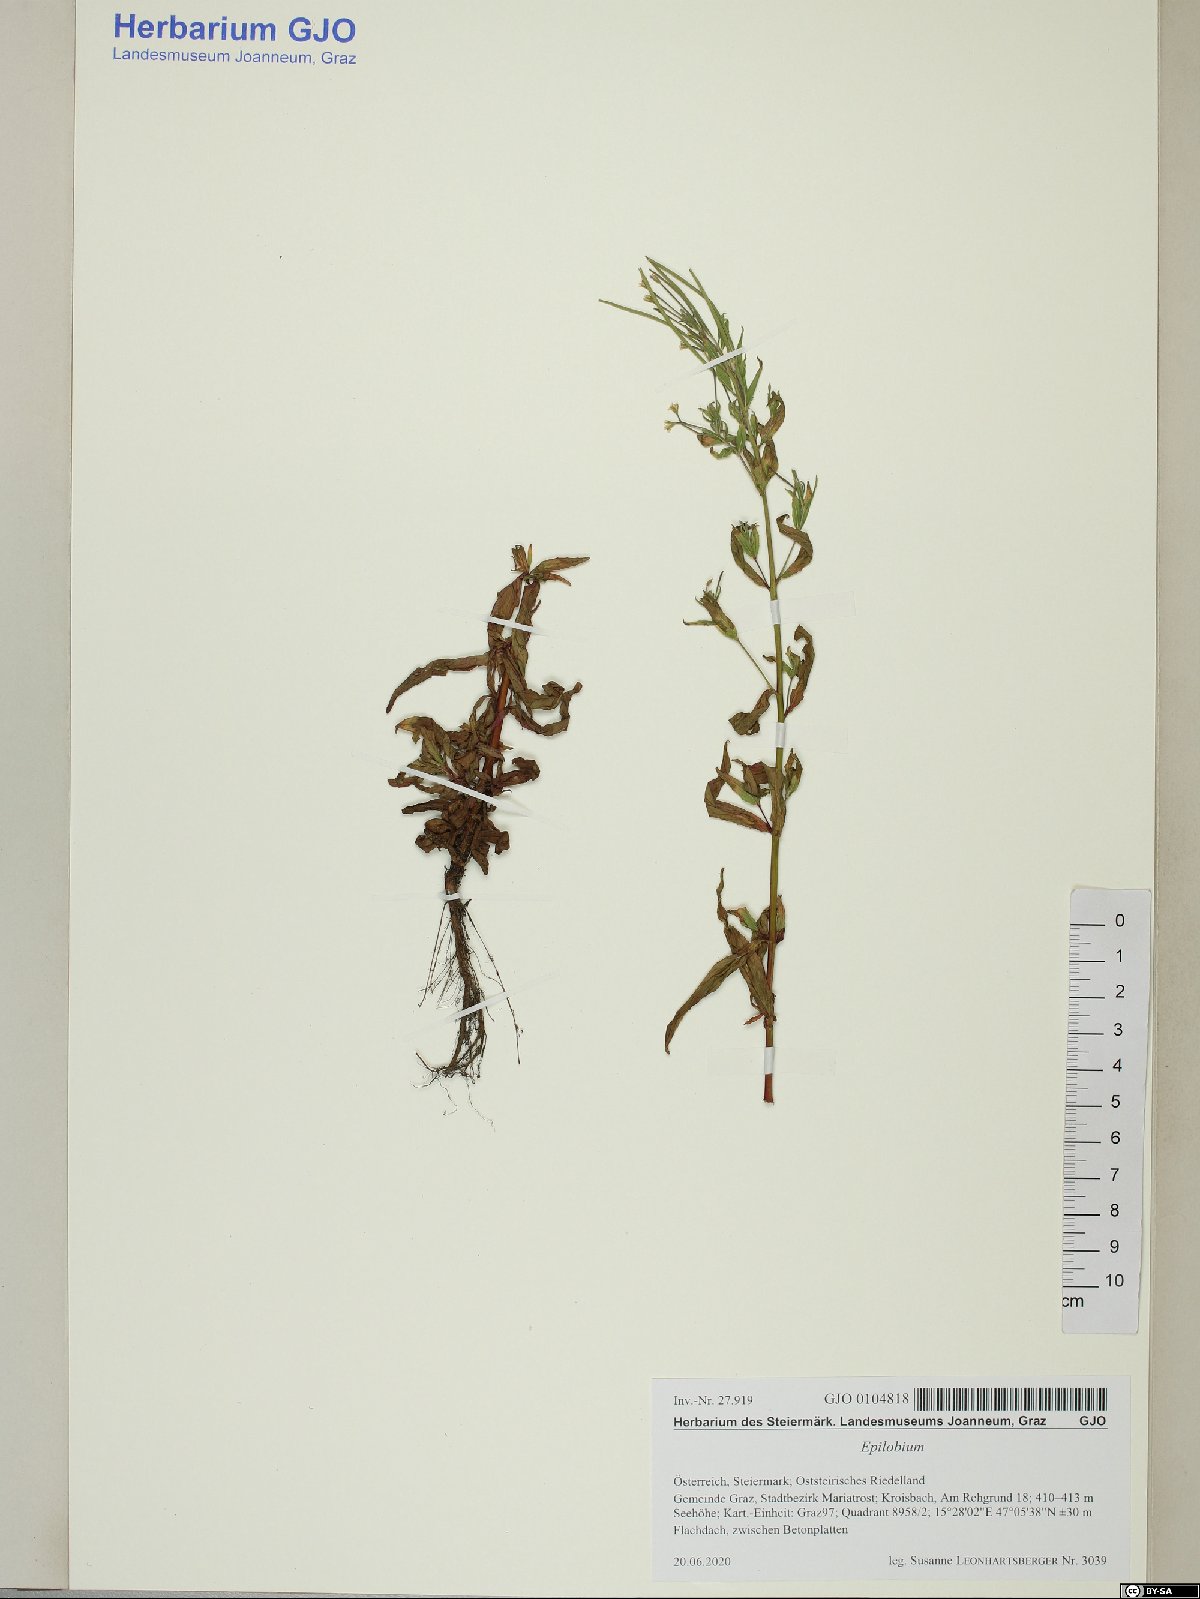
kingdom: Plantae
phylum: Tracheophyta
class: Magnoliopsida
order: Myrtales
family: Onagraceae
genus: Epilobium
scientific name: Epilobium
